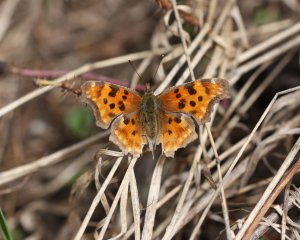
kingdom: Animalia
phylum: Arthropoda
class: Insecta
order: Lepidoptera
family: Nymphalidae
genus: Polygonia
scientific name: Polygonia satyrus
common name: Satyr Comma
